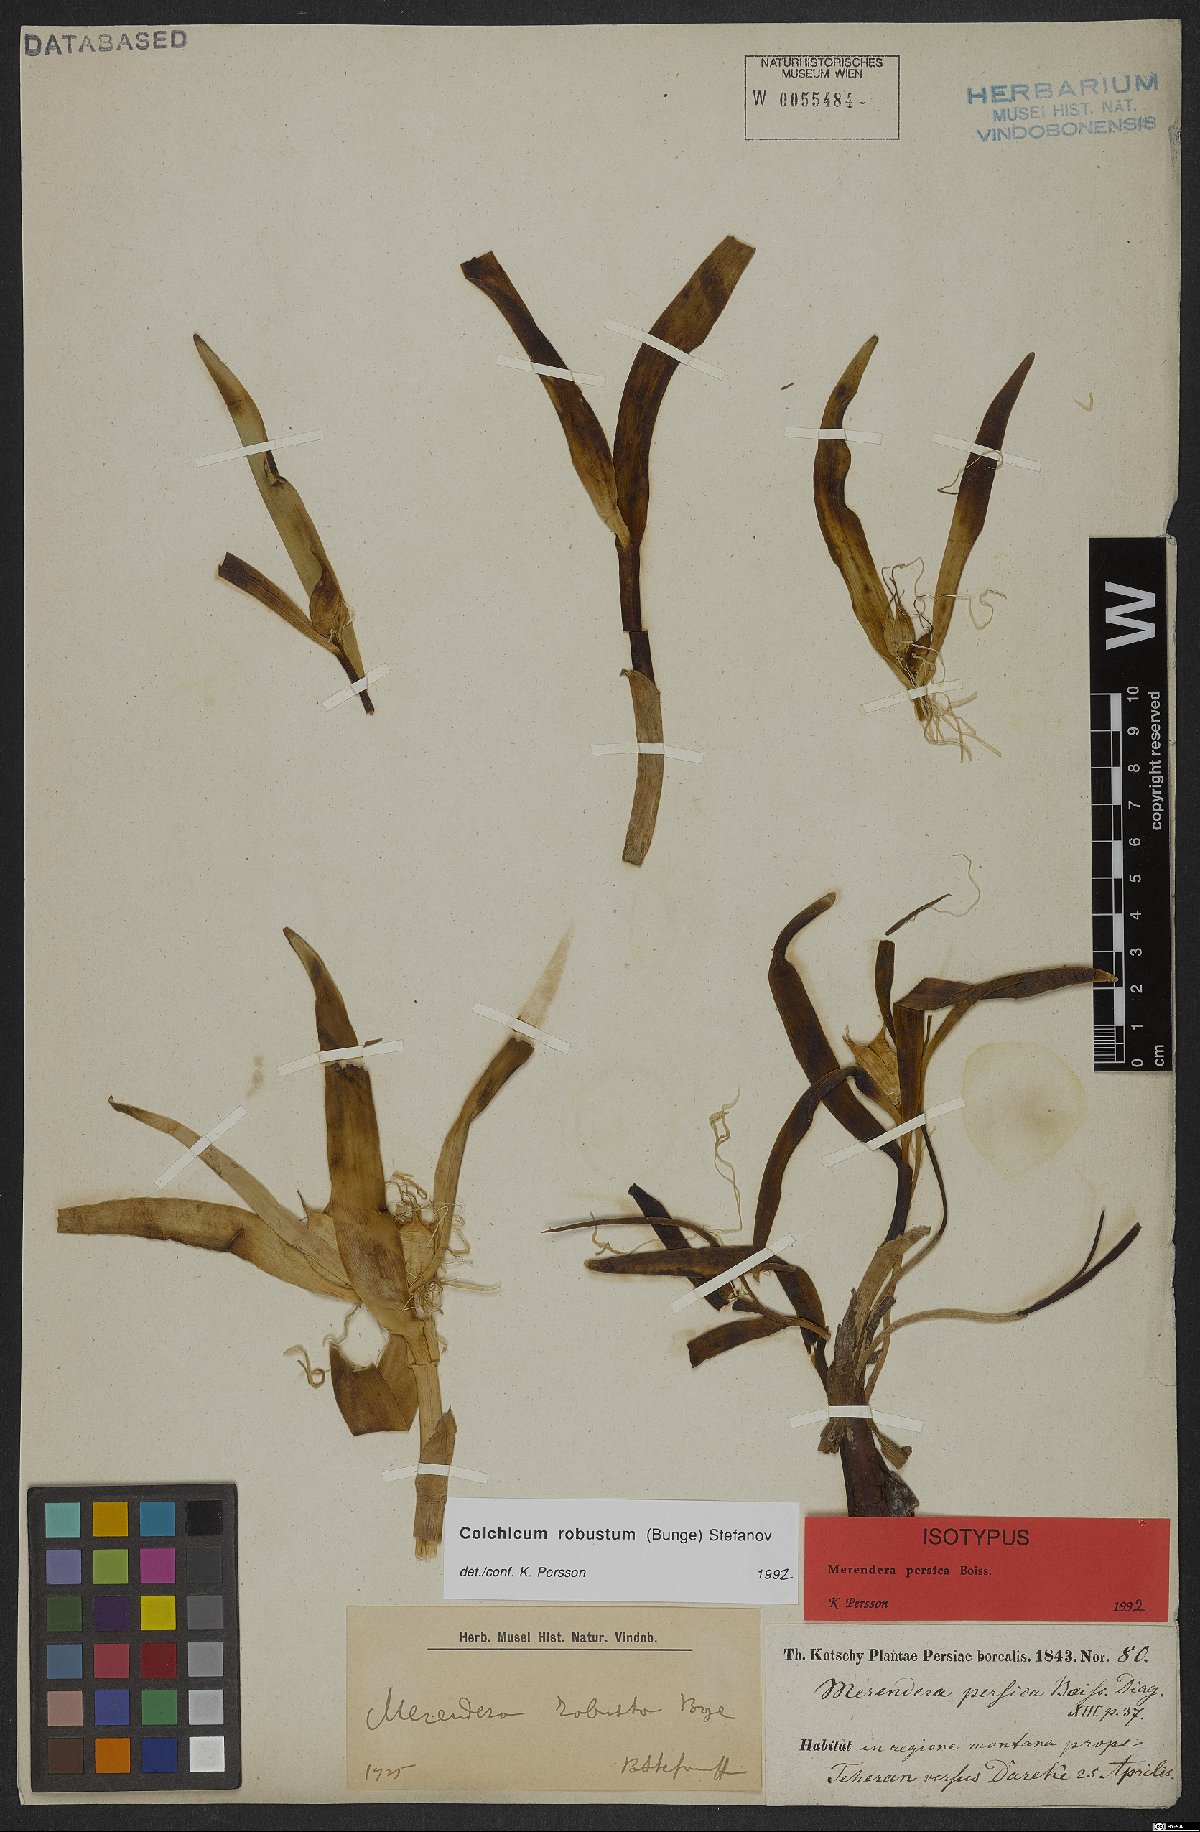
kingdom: Plantae
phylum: Tracheophyta
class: Liliopsida
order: Liliales
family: Colchicaceae
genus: Colchicum
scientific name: Colchicum robustum
